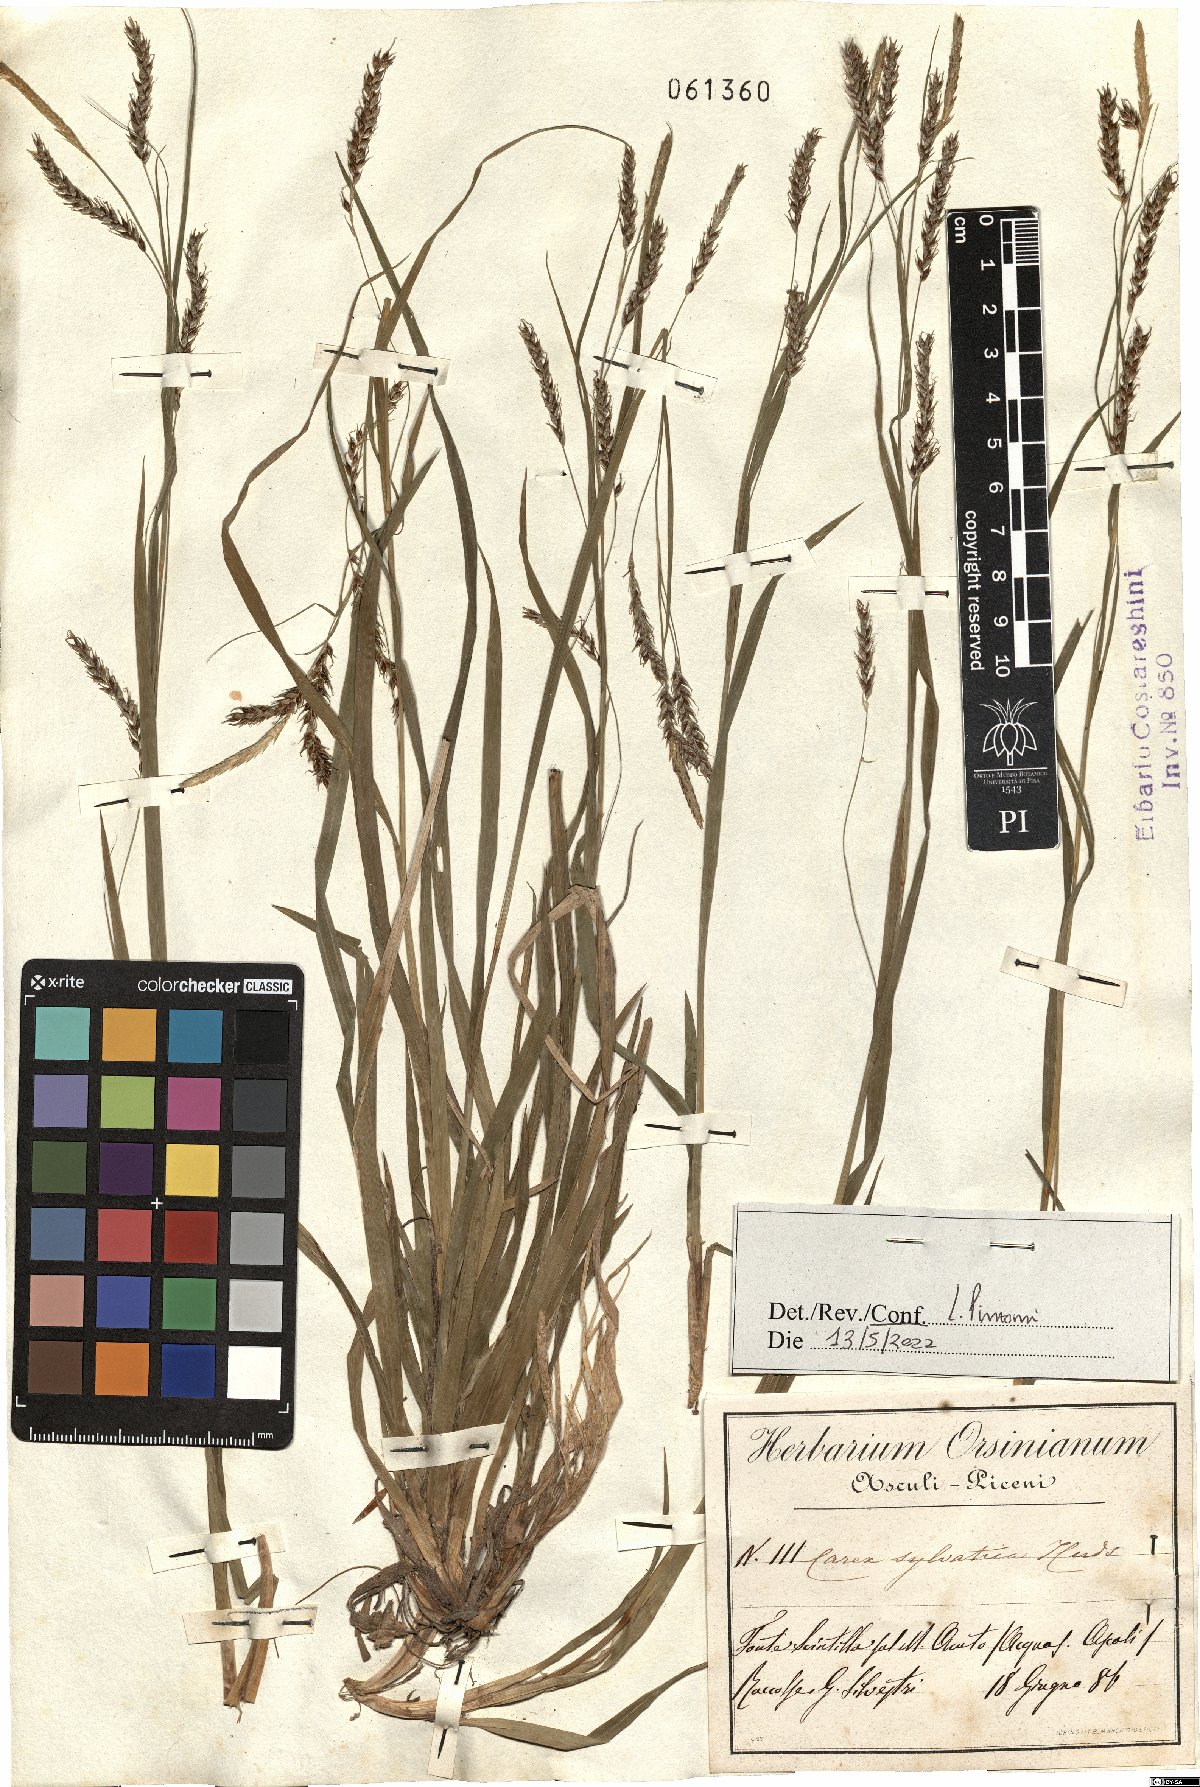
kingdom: Plantae
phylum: Tracheophyta
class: Liliopsida
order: Poales
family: Cyperaceae
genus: Carex
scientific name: Carex sylvatica
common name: Wood-sedge
